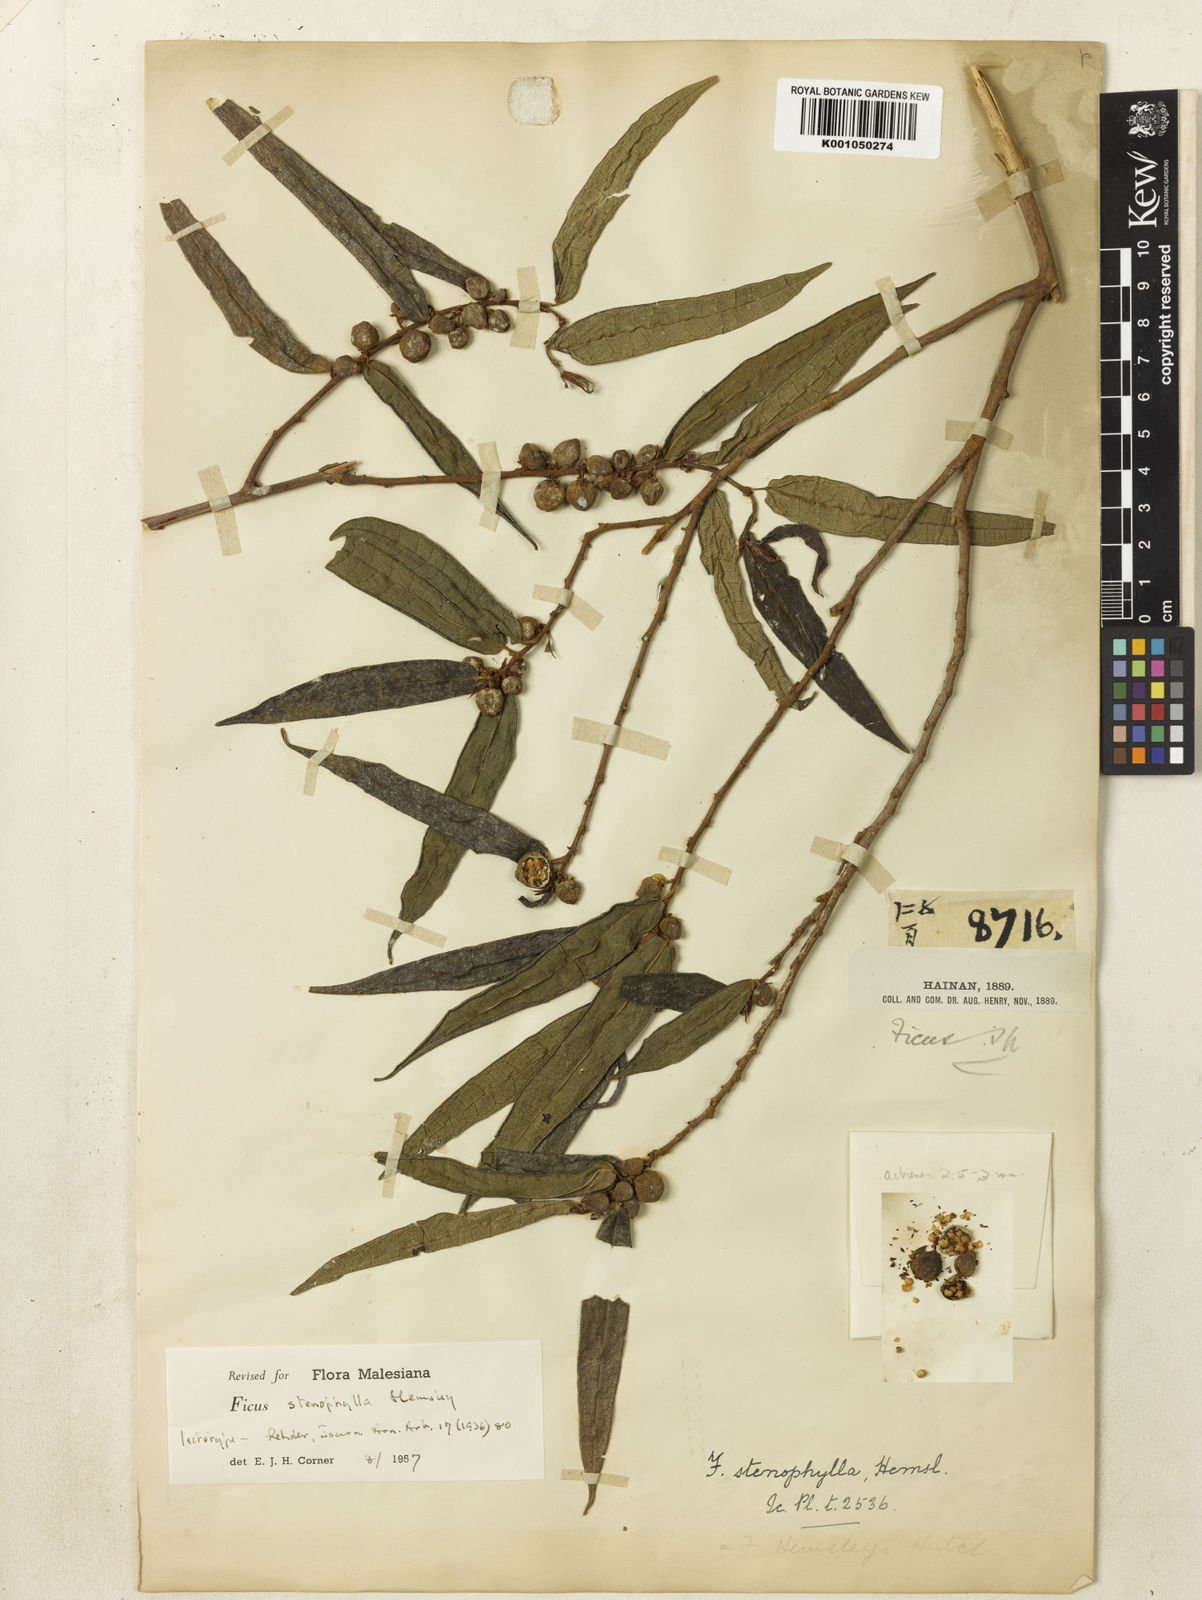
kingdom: Plantae
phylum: Tracheophyta
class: Magnoliopsida
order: Rosales
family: Moraceae
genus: Ficus
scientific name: Ficus macropodocarpa
